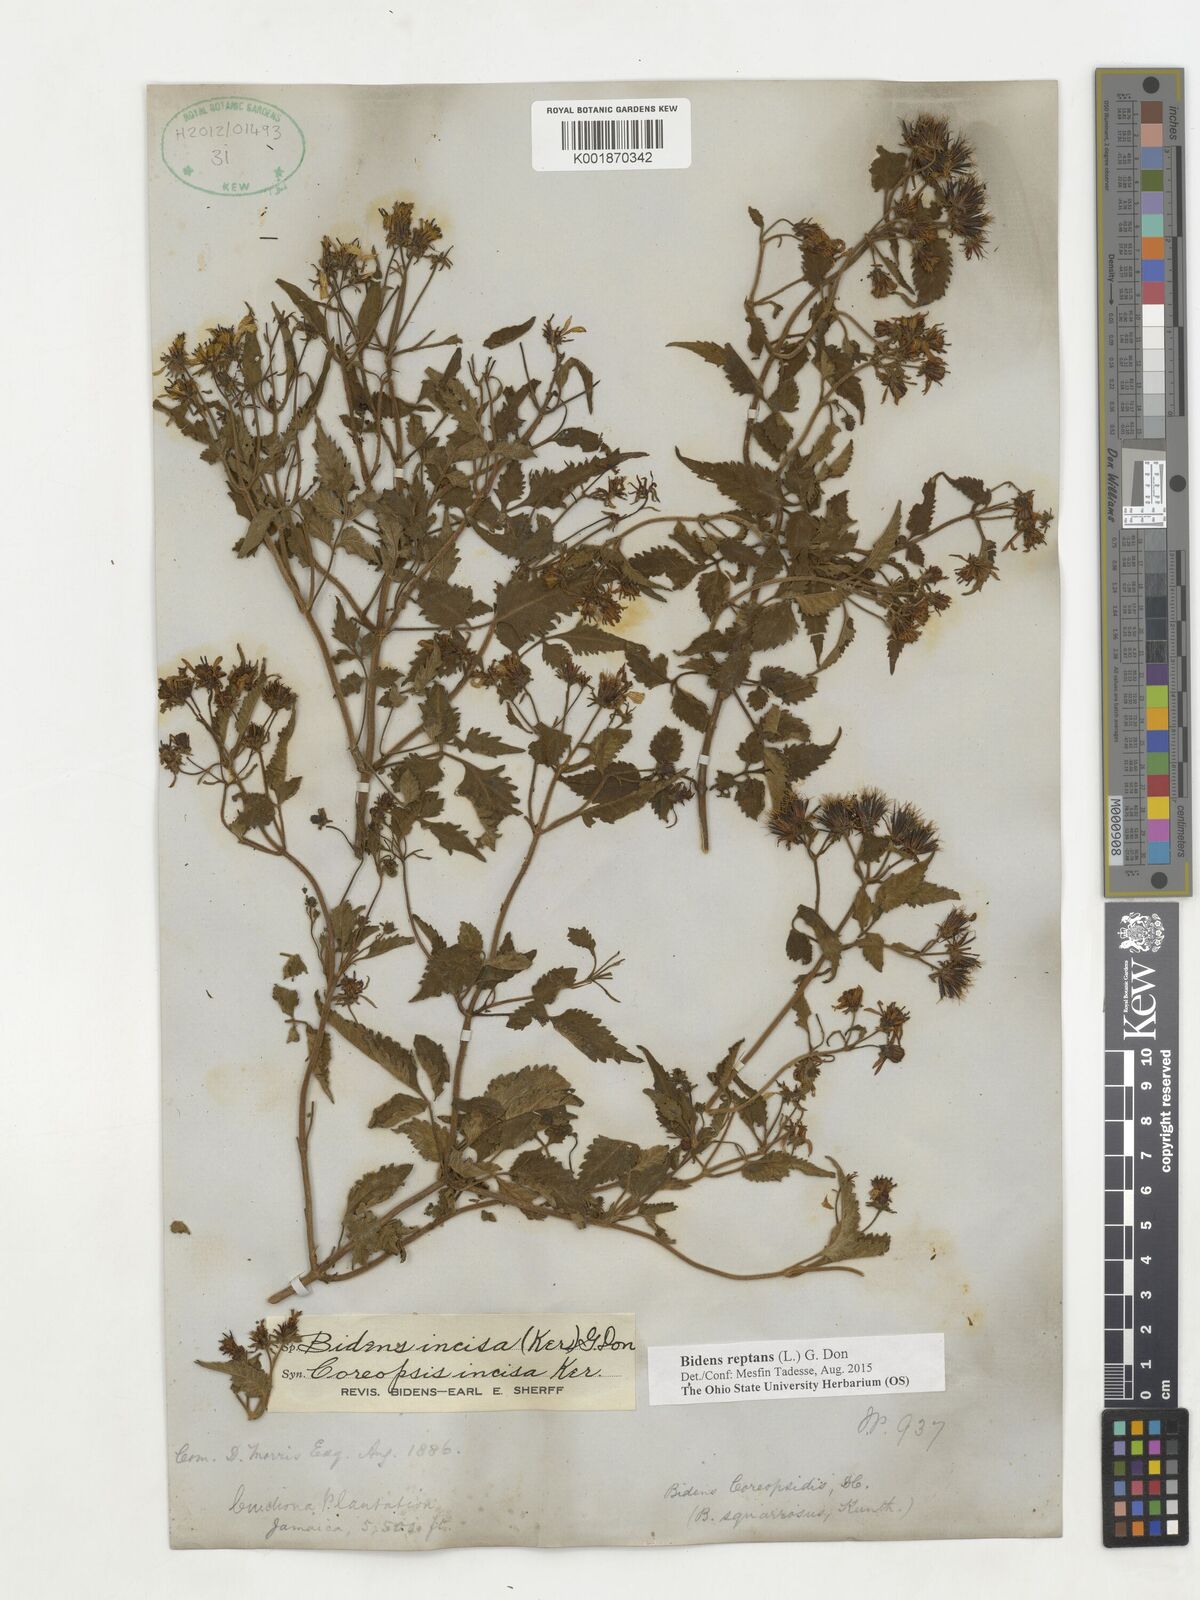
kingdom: Plantae
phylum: Tracheophyta
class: Magnoliopsida
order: Asterales
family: Asteraceae
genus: Bidens
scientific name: Bidens reptans
